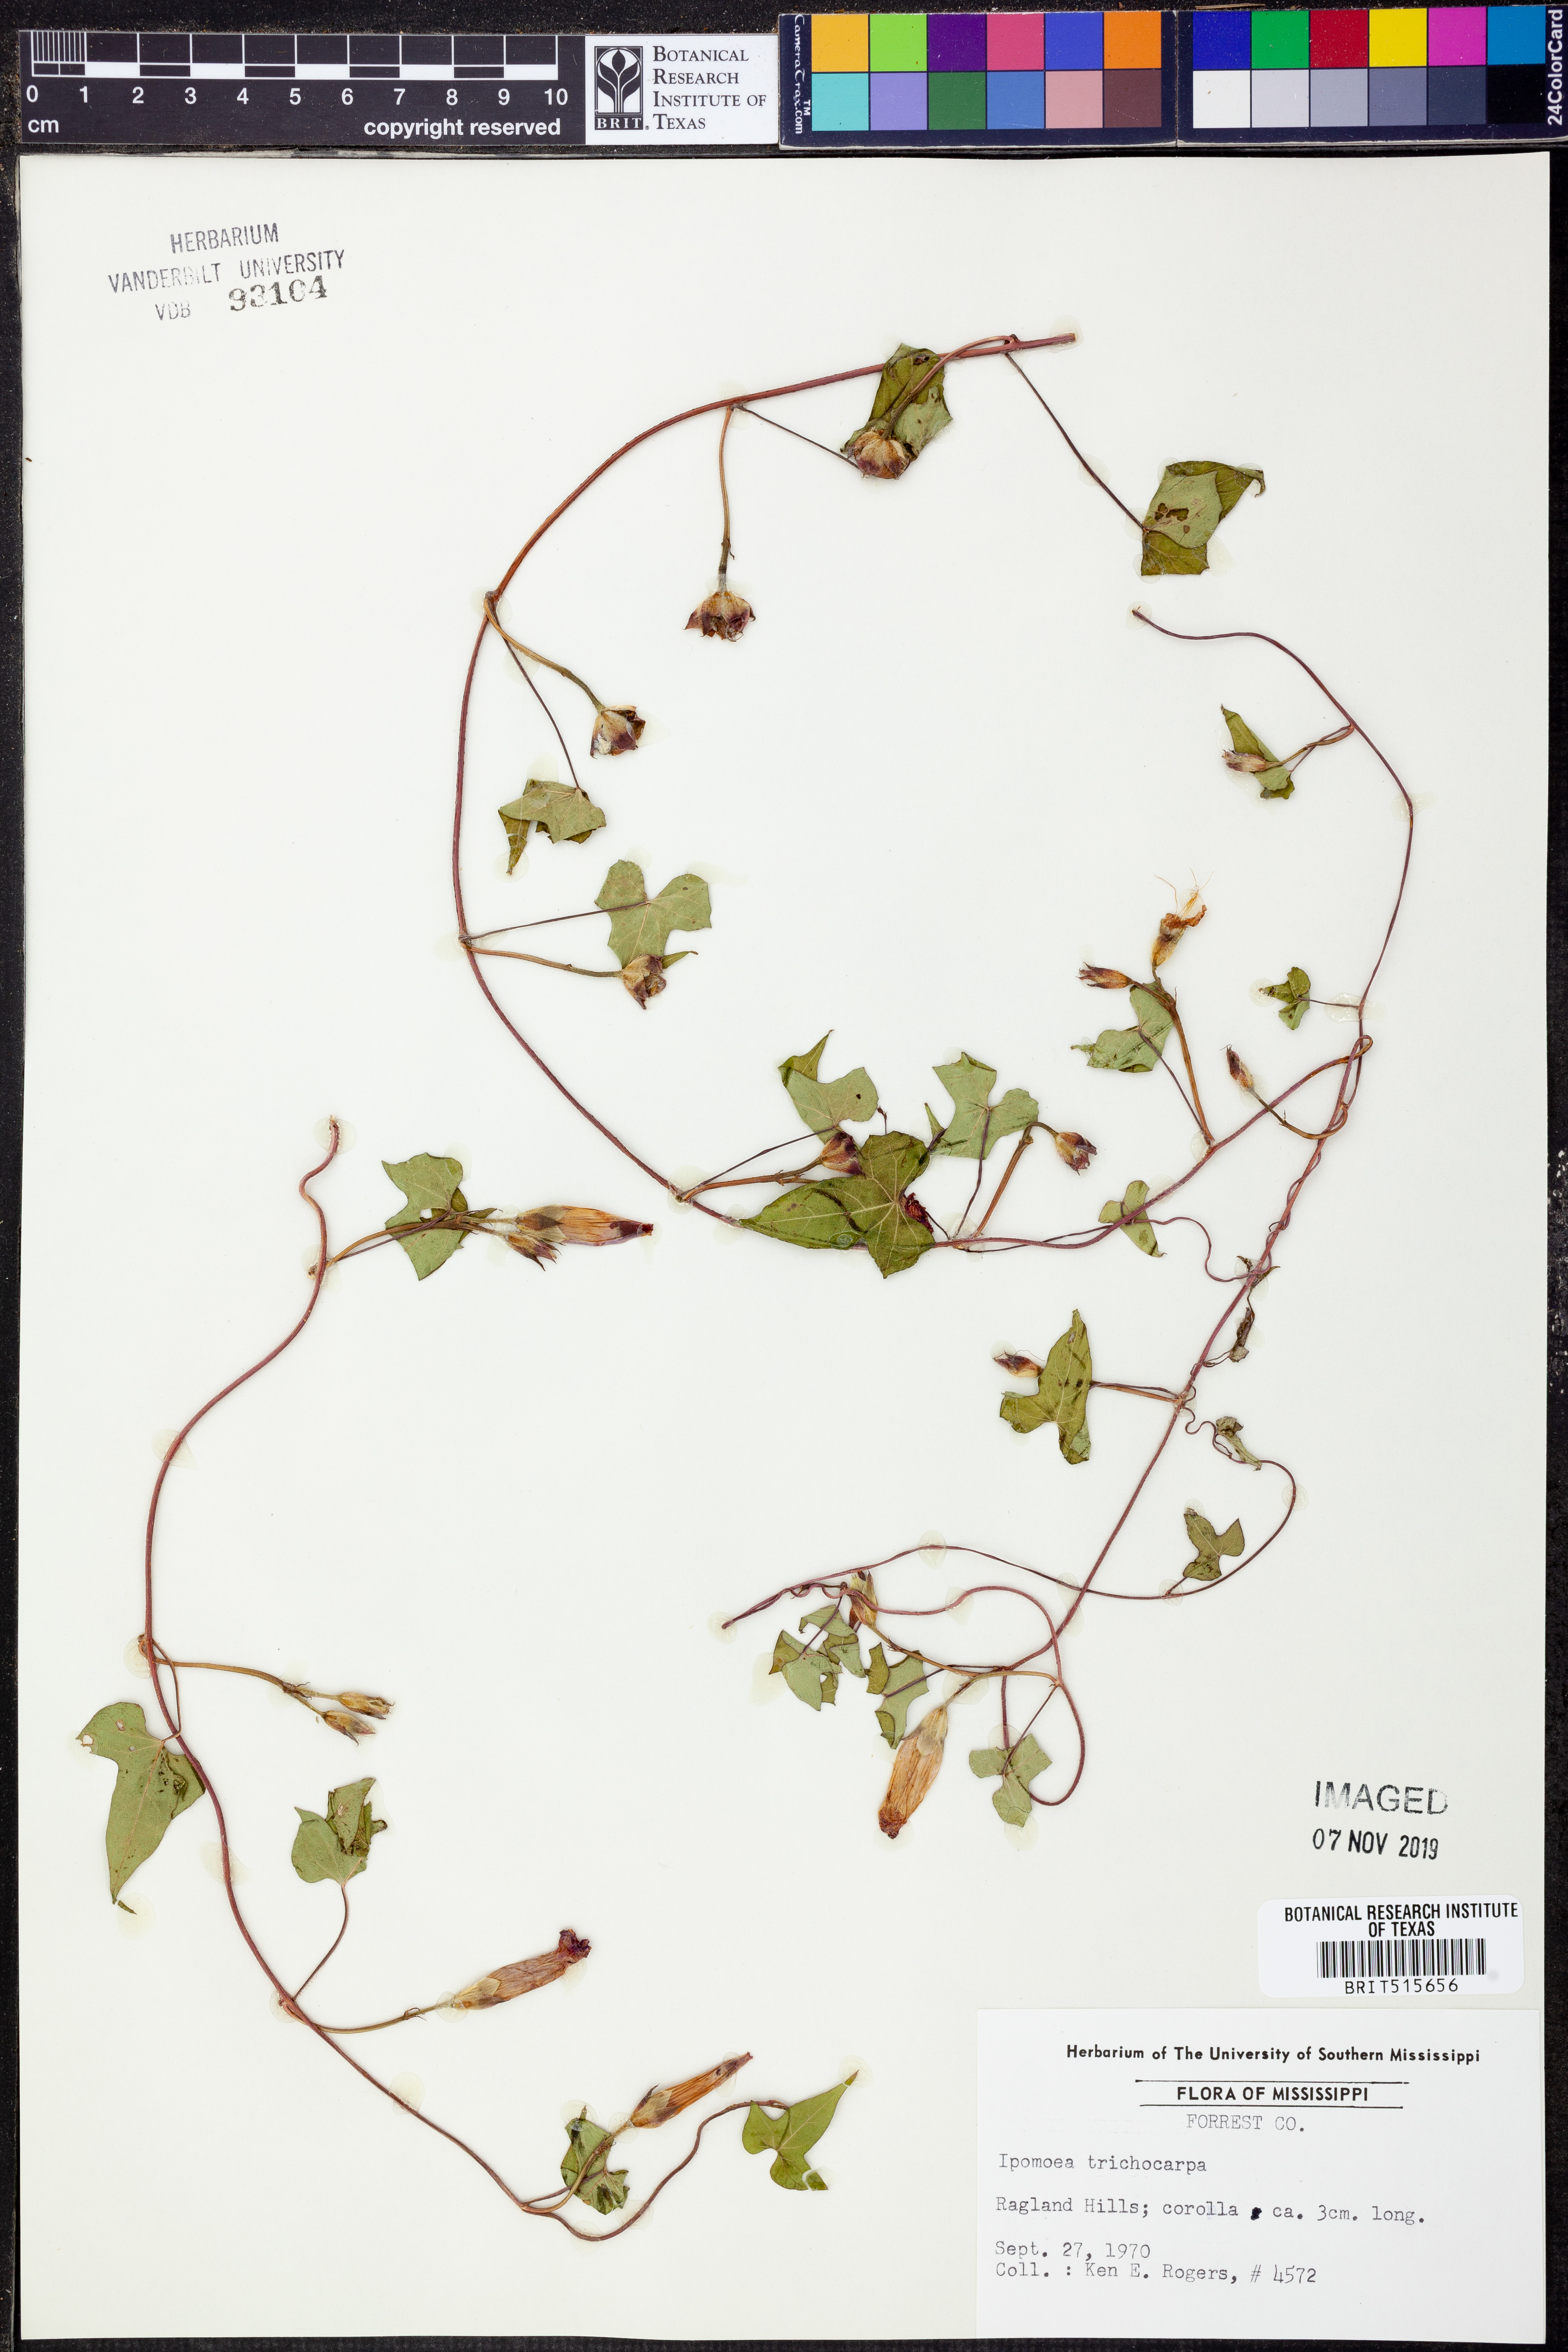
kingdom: Plantae
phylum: Tracheophyta
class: Magnoliopsida
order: Solanales
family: Convolvulaceae
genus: Ipomoea
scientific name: Ipomoea cordatotriloba
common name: Cotton morning glory
